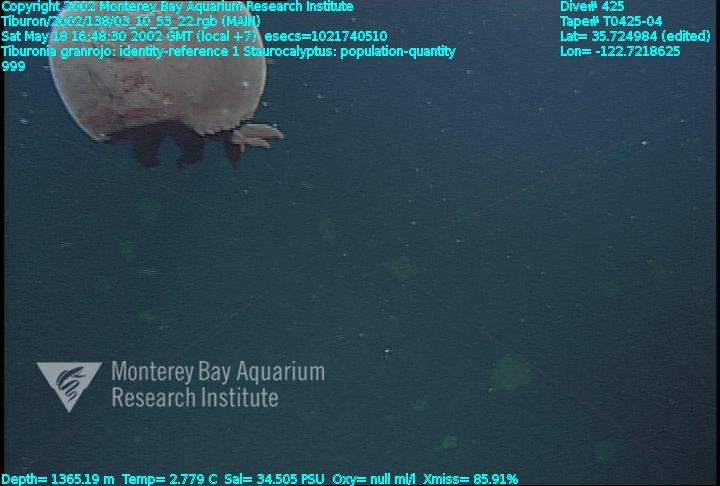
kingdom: Animalia
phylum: Porifera
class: Hexactinellida
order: Lyssacinosida
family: Rossellidae
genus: Staurocalyptus
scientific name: Staurocalyptus
